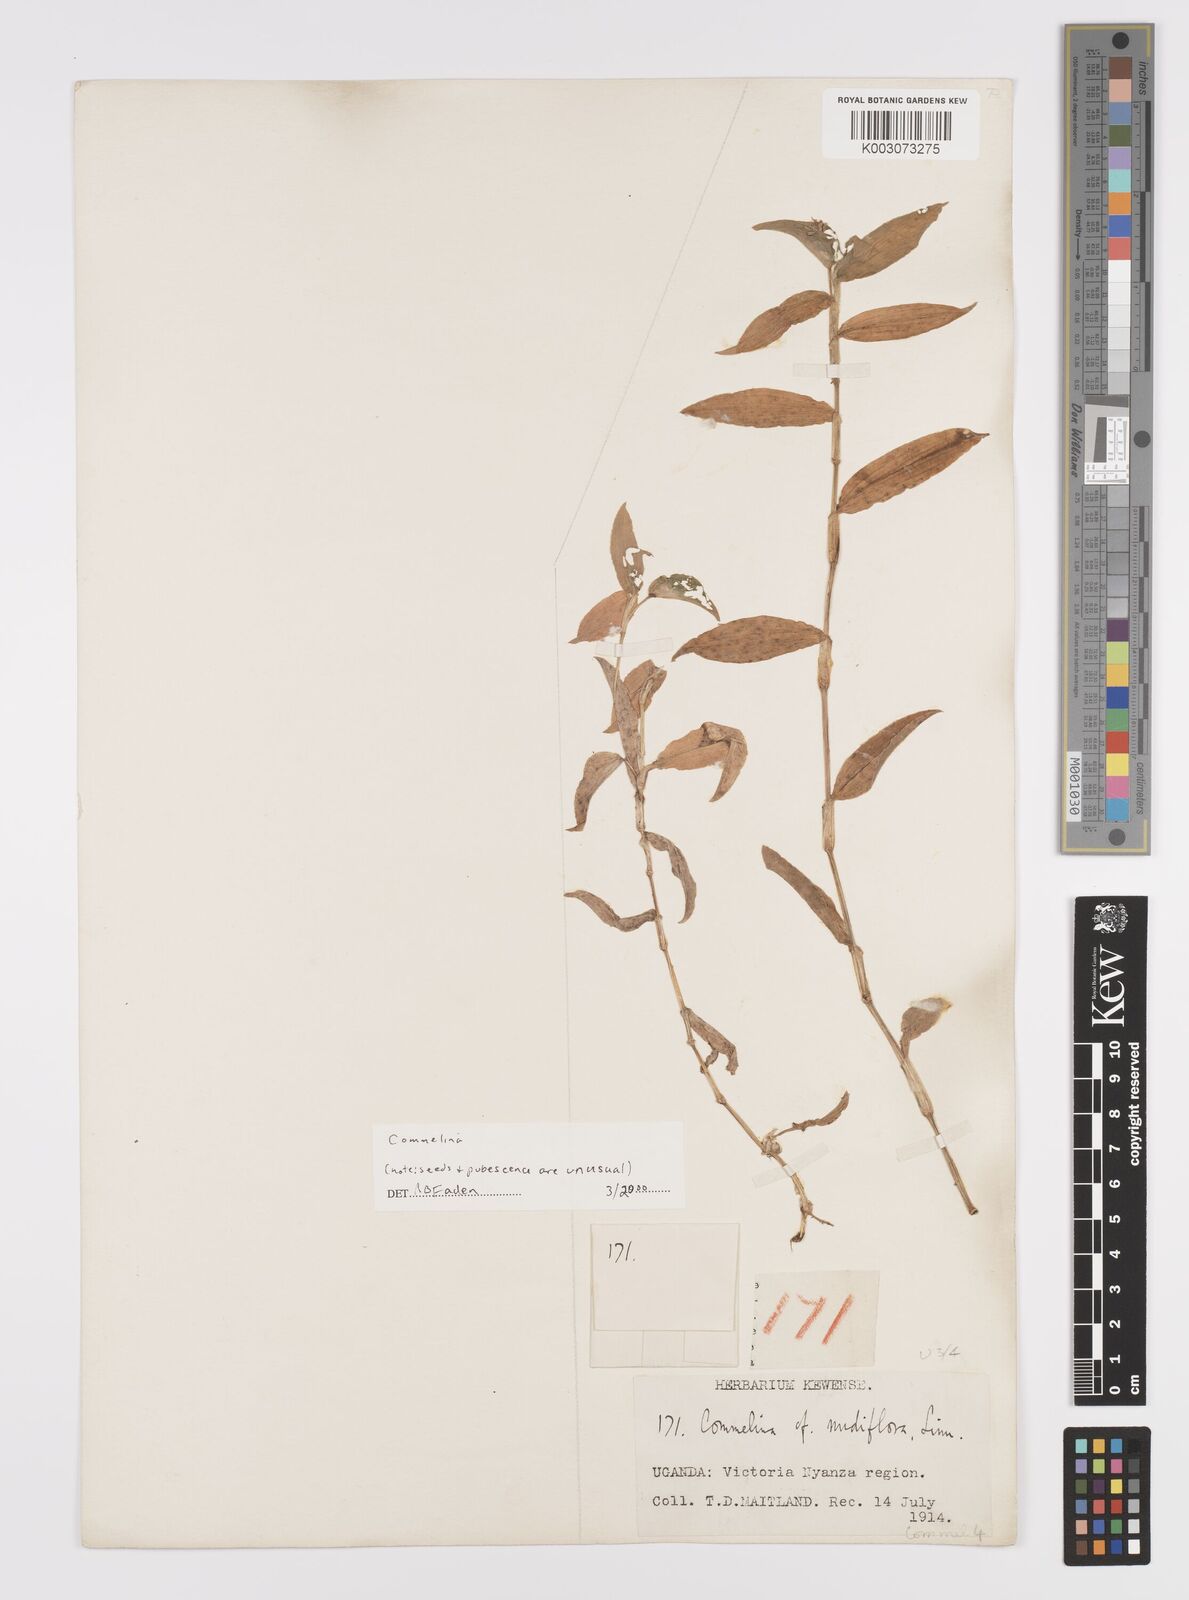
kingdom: Plantae
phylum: Tracheophyta
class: Liliopsida
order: Commelinales
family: Commelinaceae
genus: Commelina
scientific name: Commelina africana
